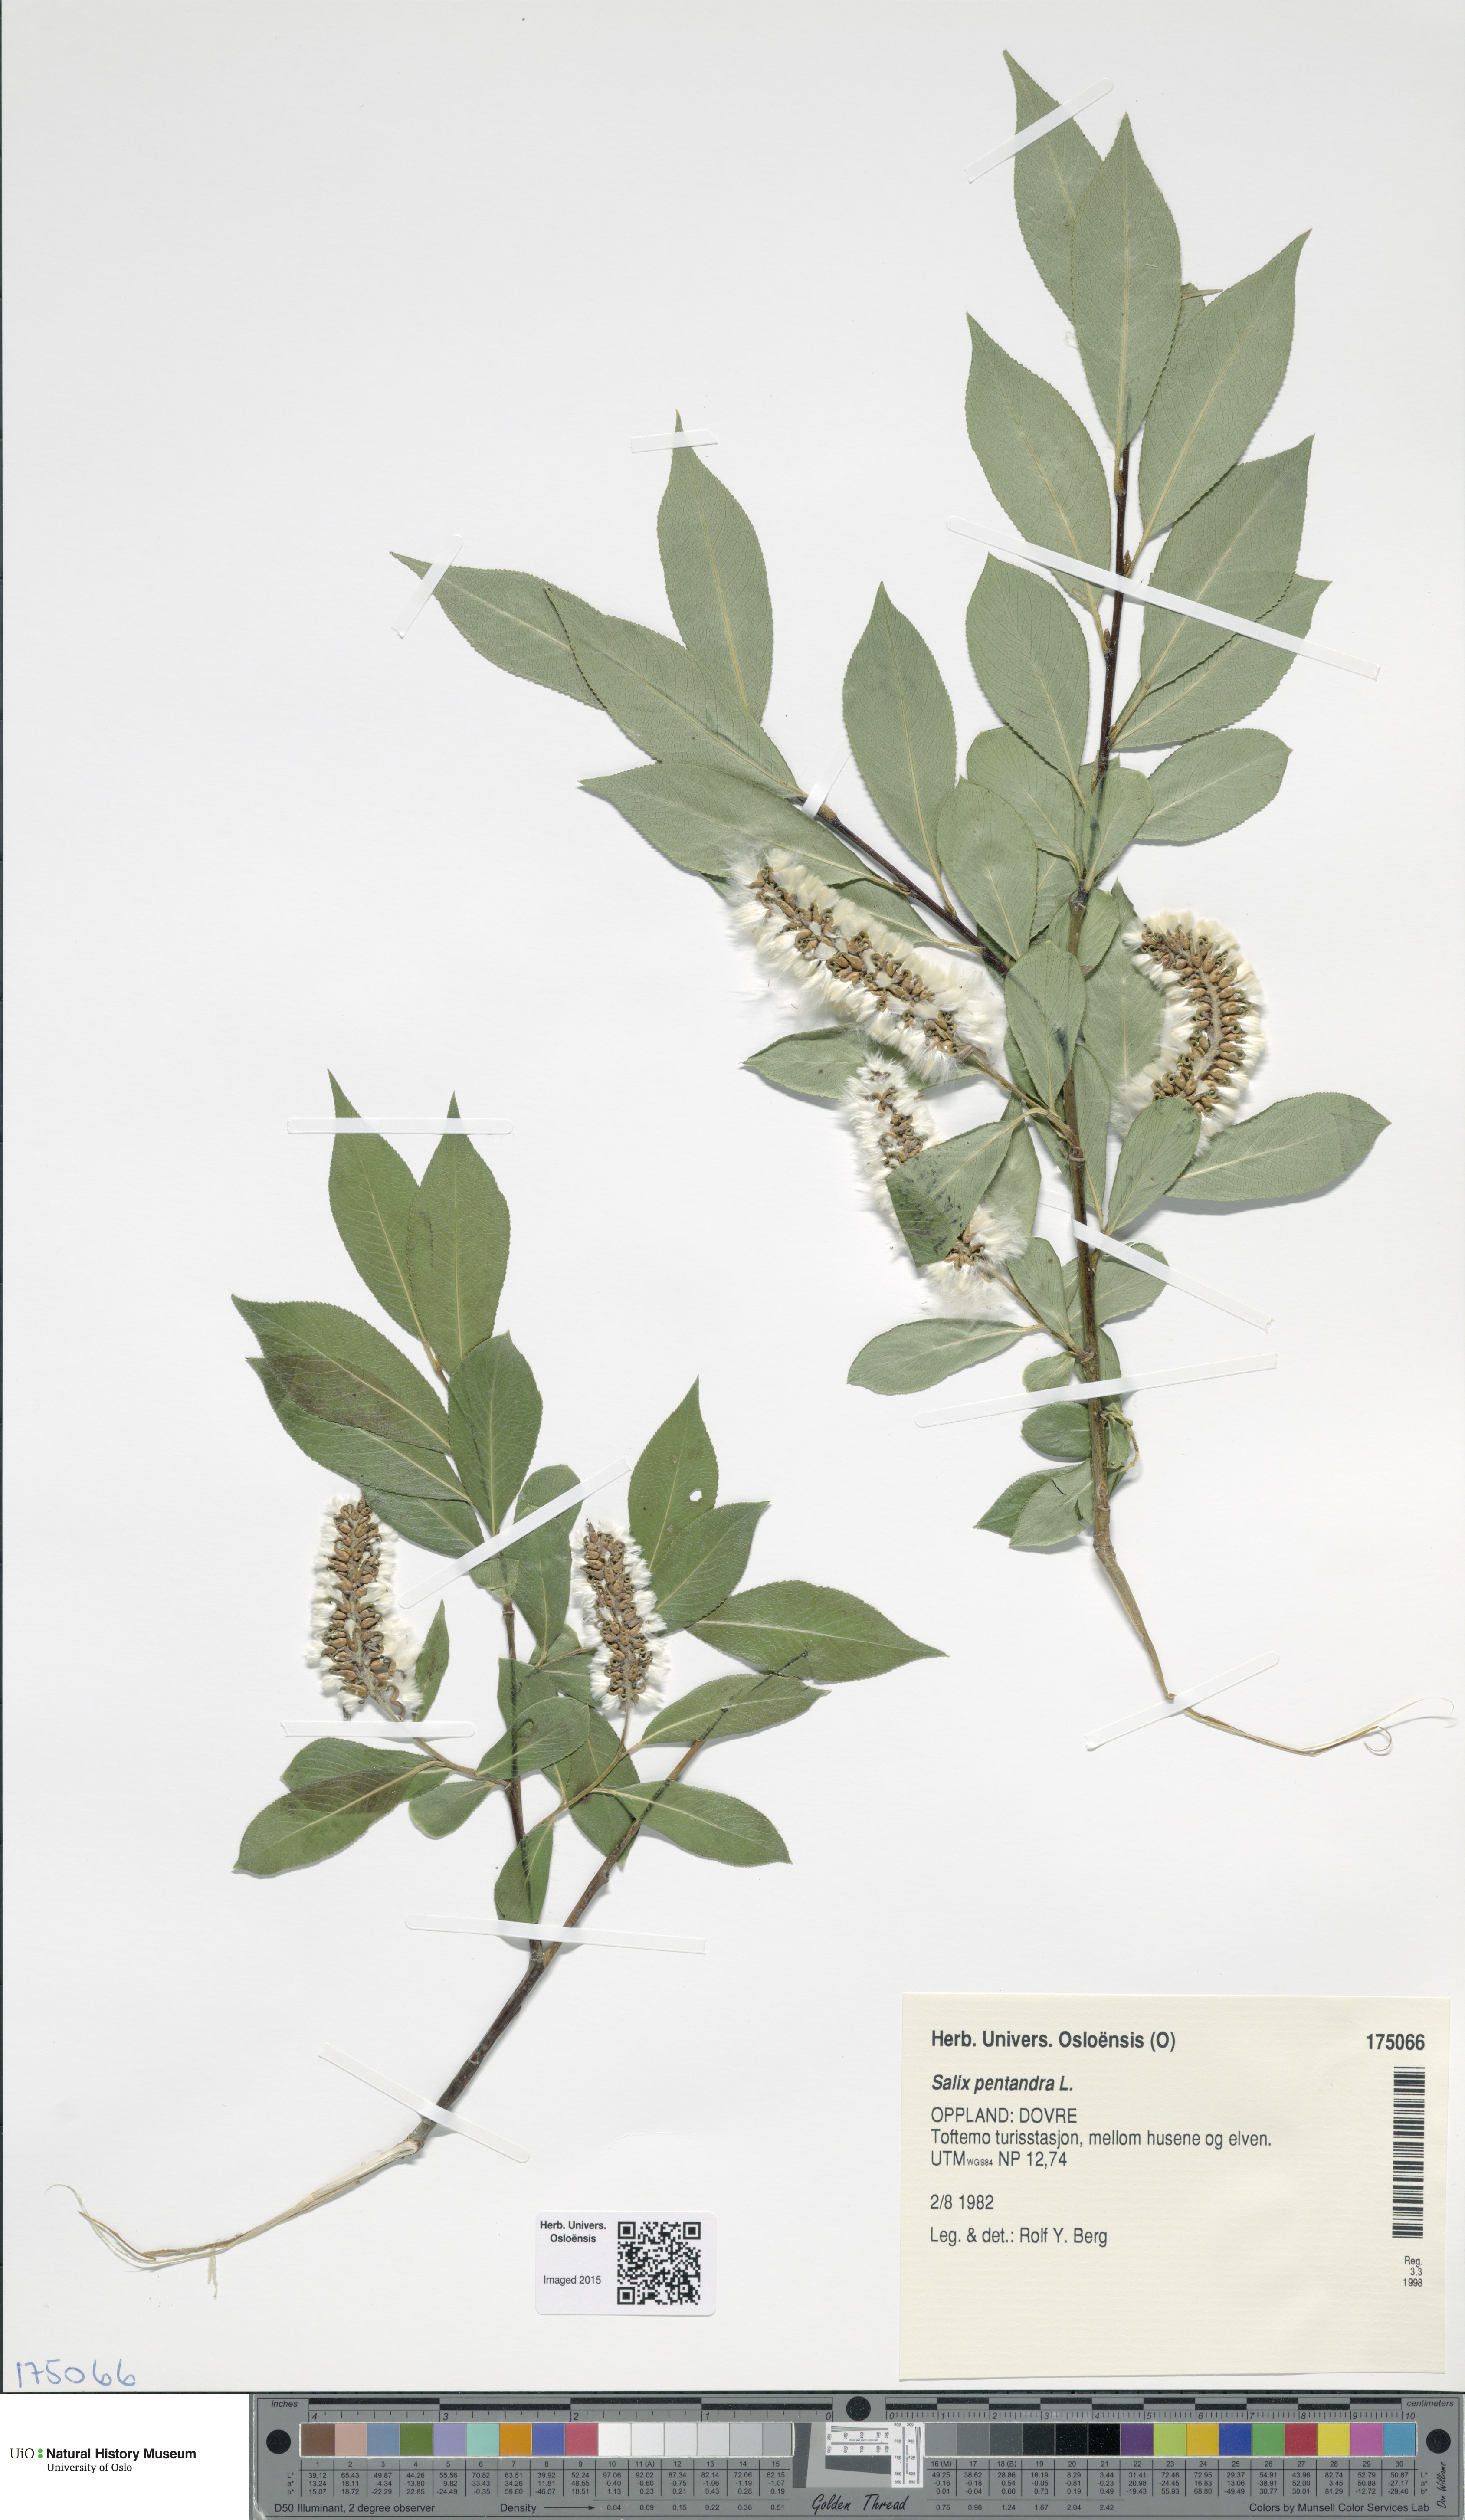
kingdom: Plantae
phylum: Tracheophyta
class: Magnoliopsida
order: Malpighiales
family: Salicaceae
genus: Salix
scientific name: Salix pentandra
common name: Bay willow
